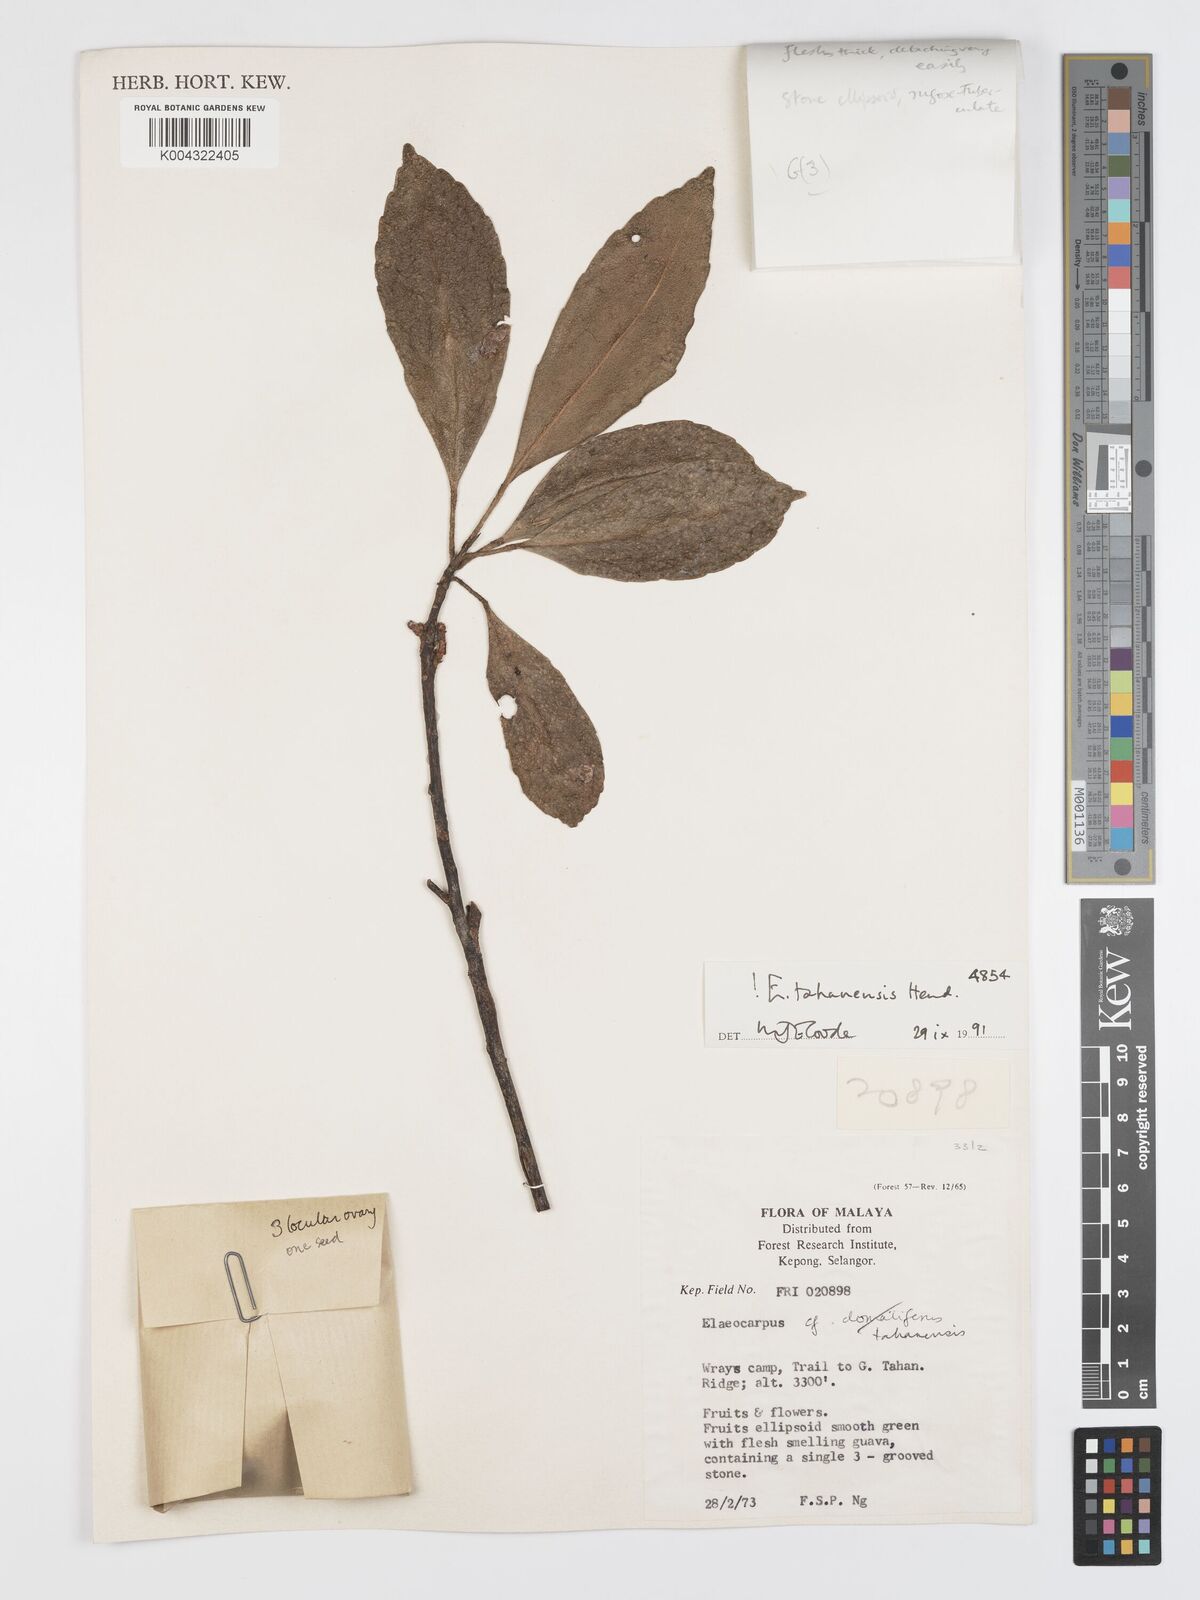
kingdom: Plantae
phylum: Tracheophyta
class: Magnoliopsida
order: Oxalidales
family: Elaeocarpaceae
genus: Elaeocarpus
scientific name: Elaeocarpus floribundus
